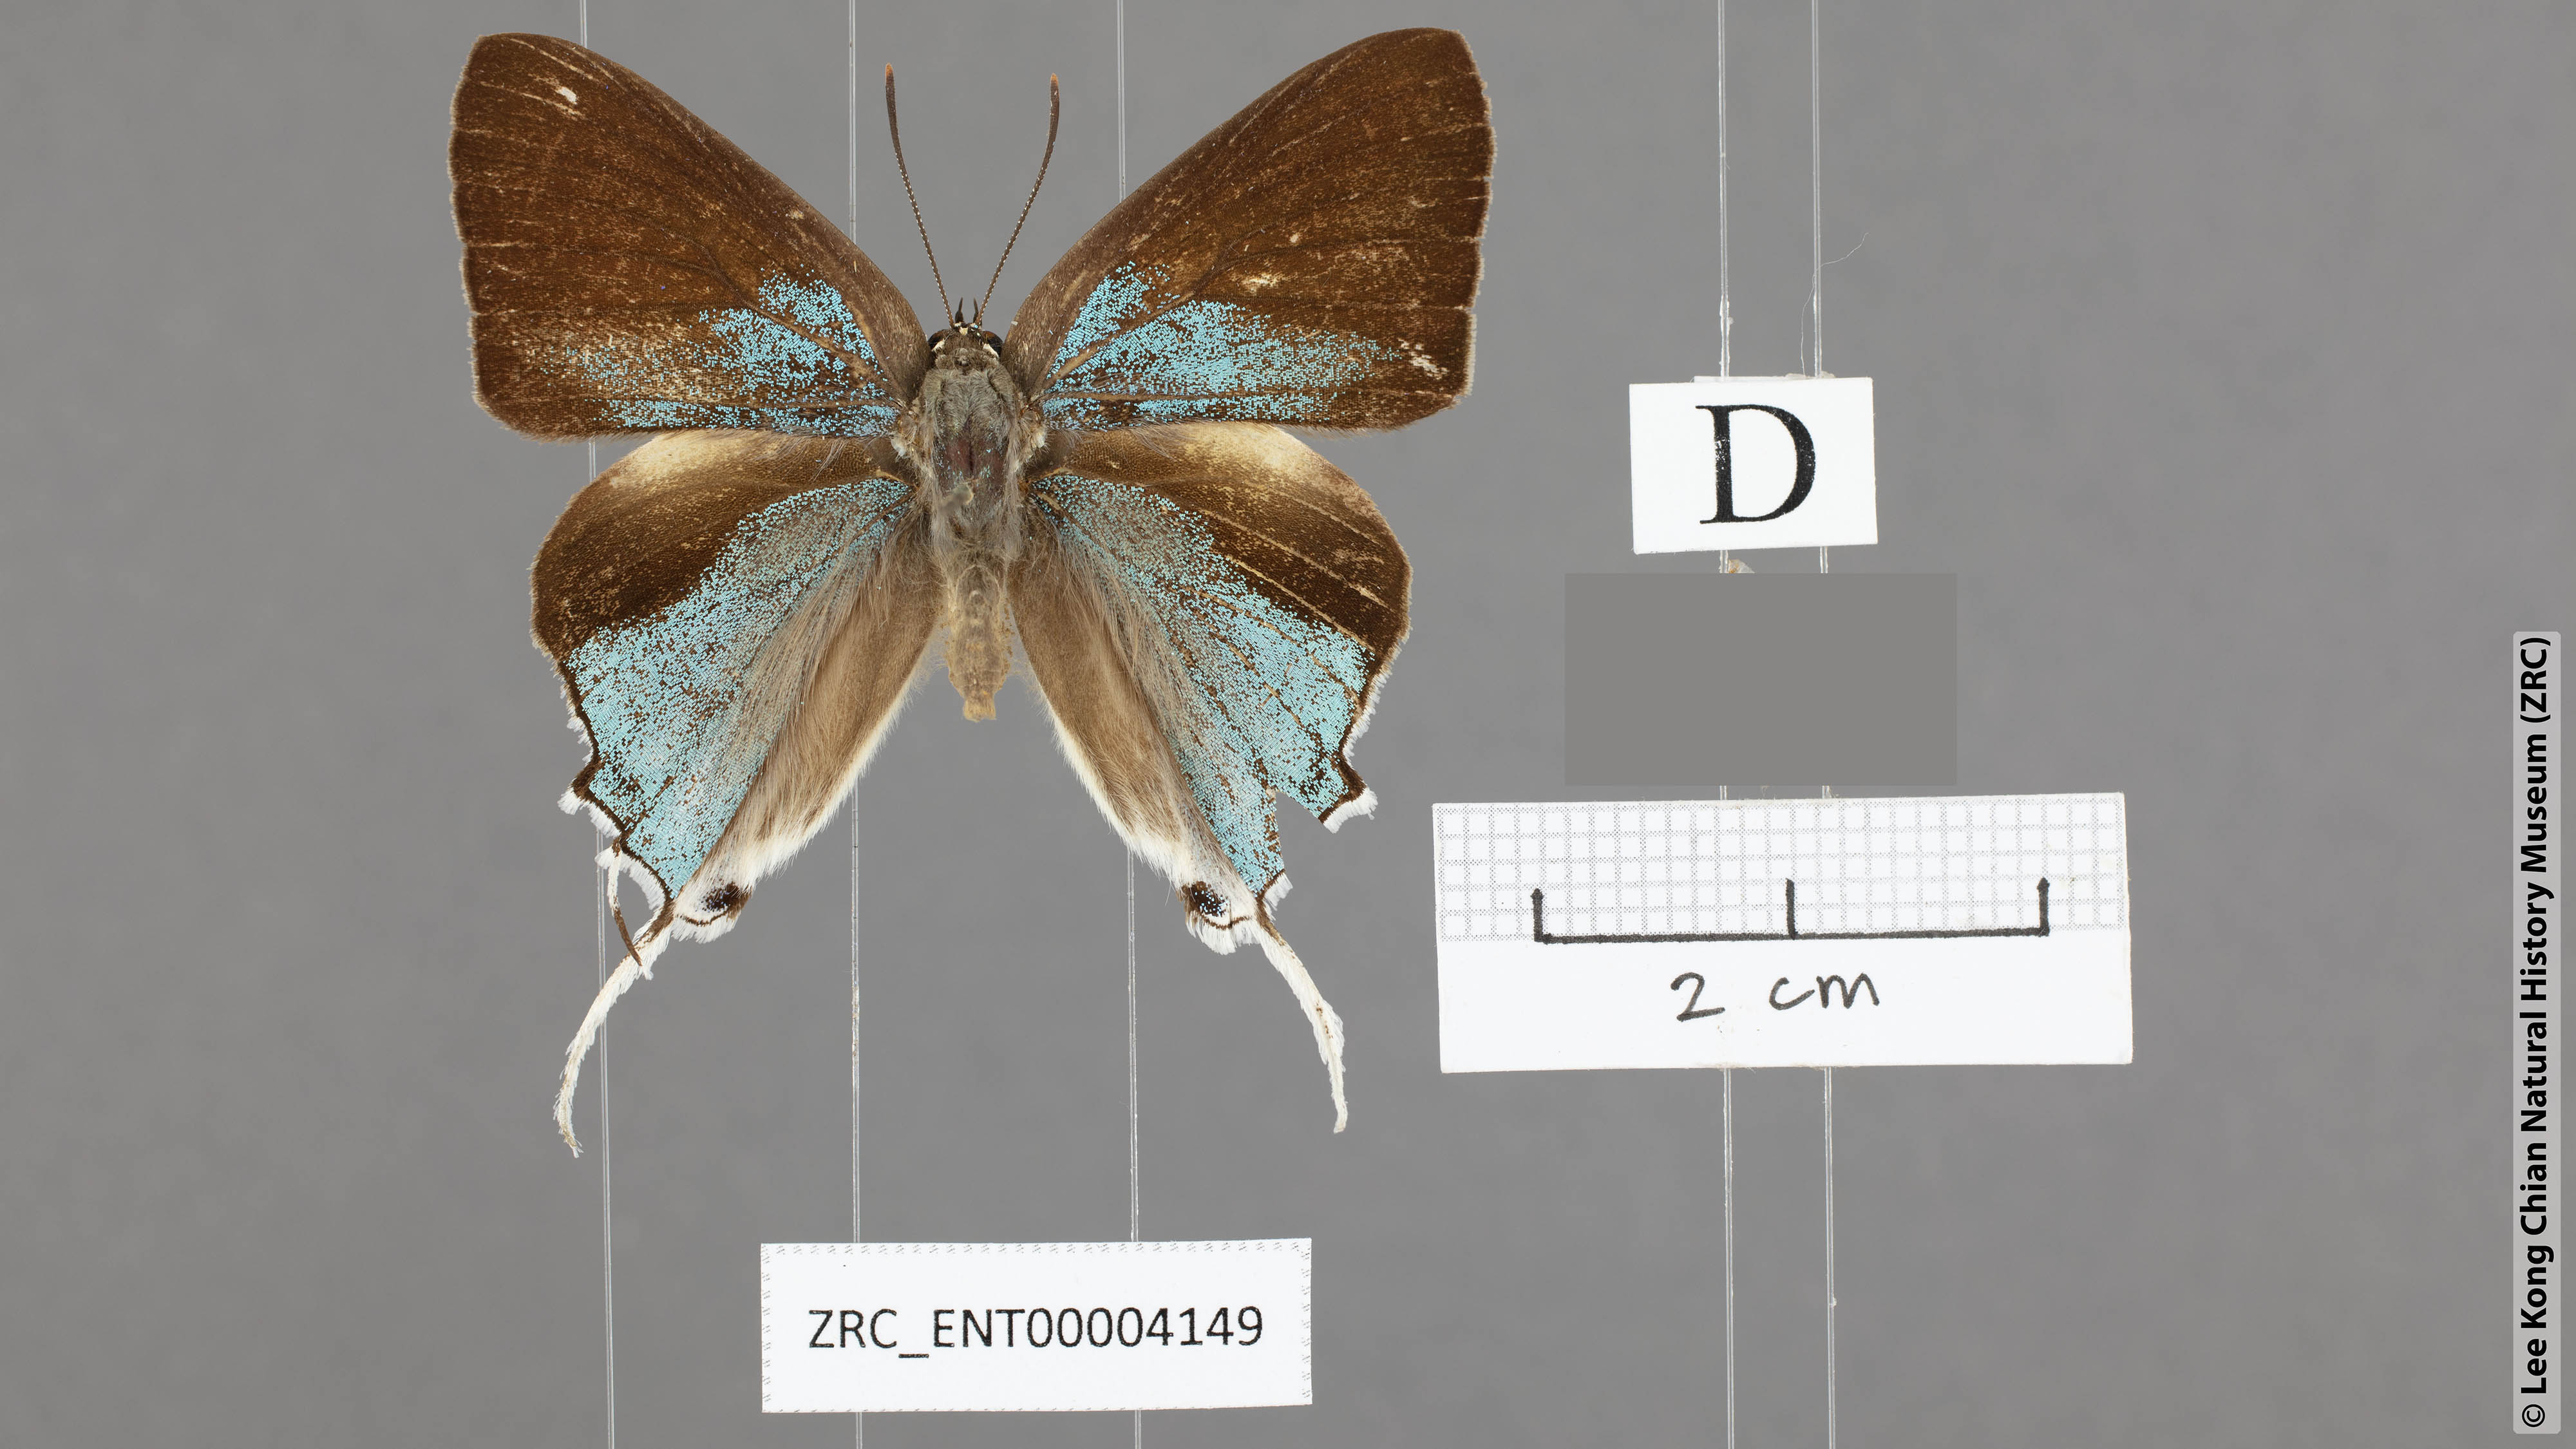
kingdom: Animalia
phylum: Arthropoda
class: Insecta
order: Lepidoptera
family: Lycaenidae
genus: Charana
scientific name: Charana mandarinus
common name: Mandarin blue
